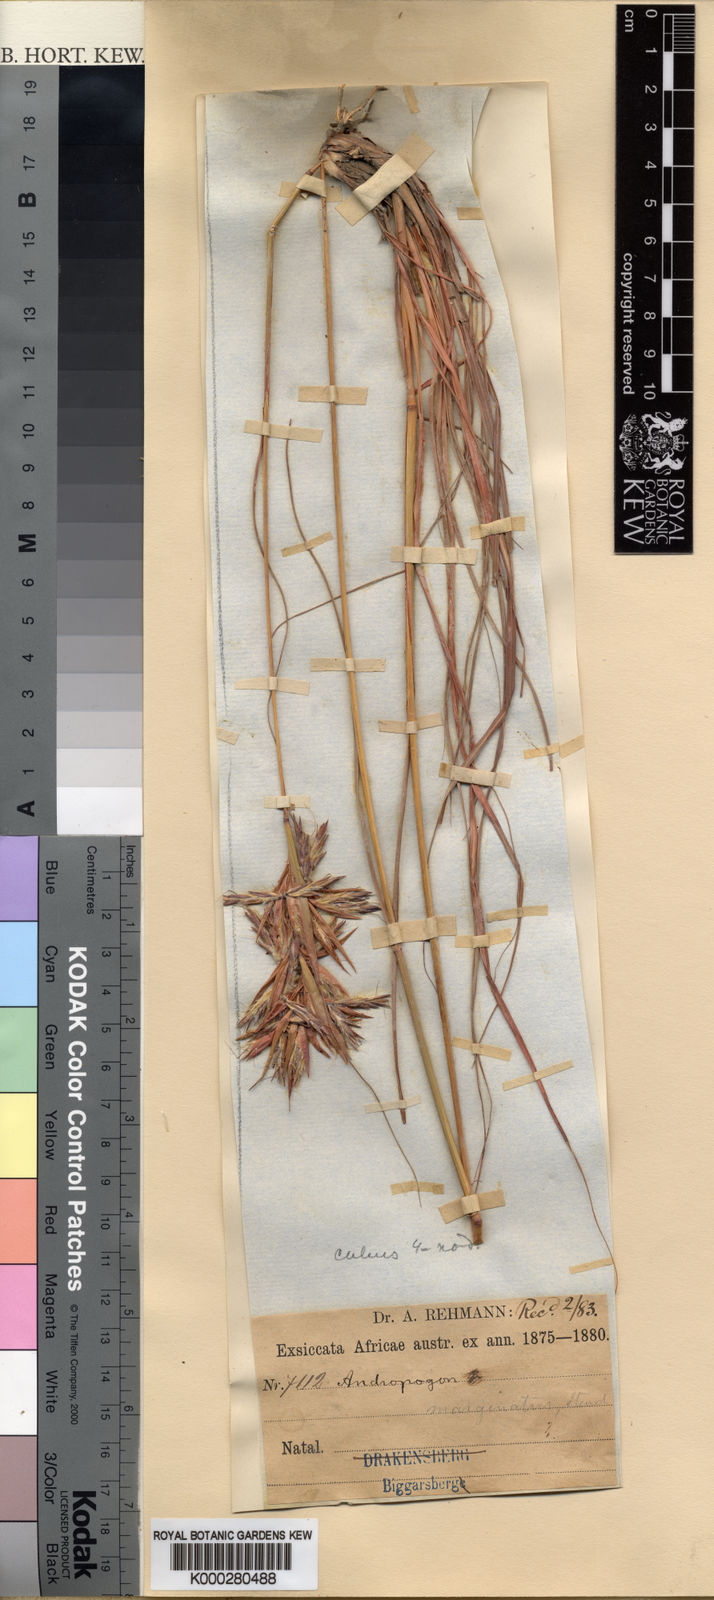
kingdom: Plantae
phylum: Tracheophyta
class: Liliopsida
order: Poales
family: Poaceae
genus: Cymbopogon
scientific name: Cymbopogon pospischilii
